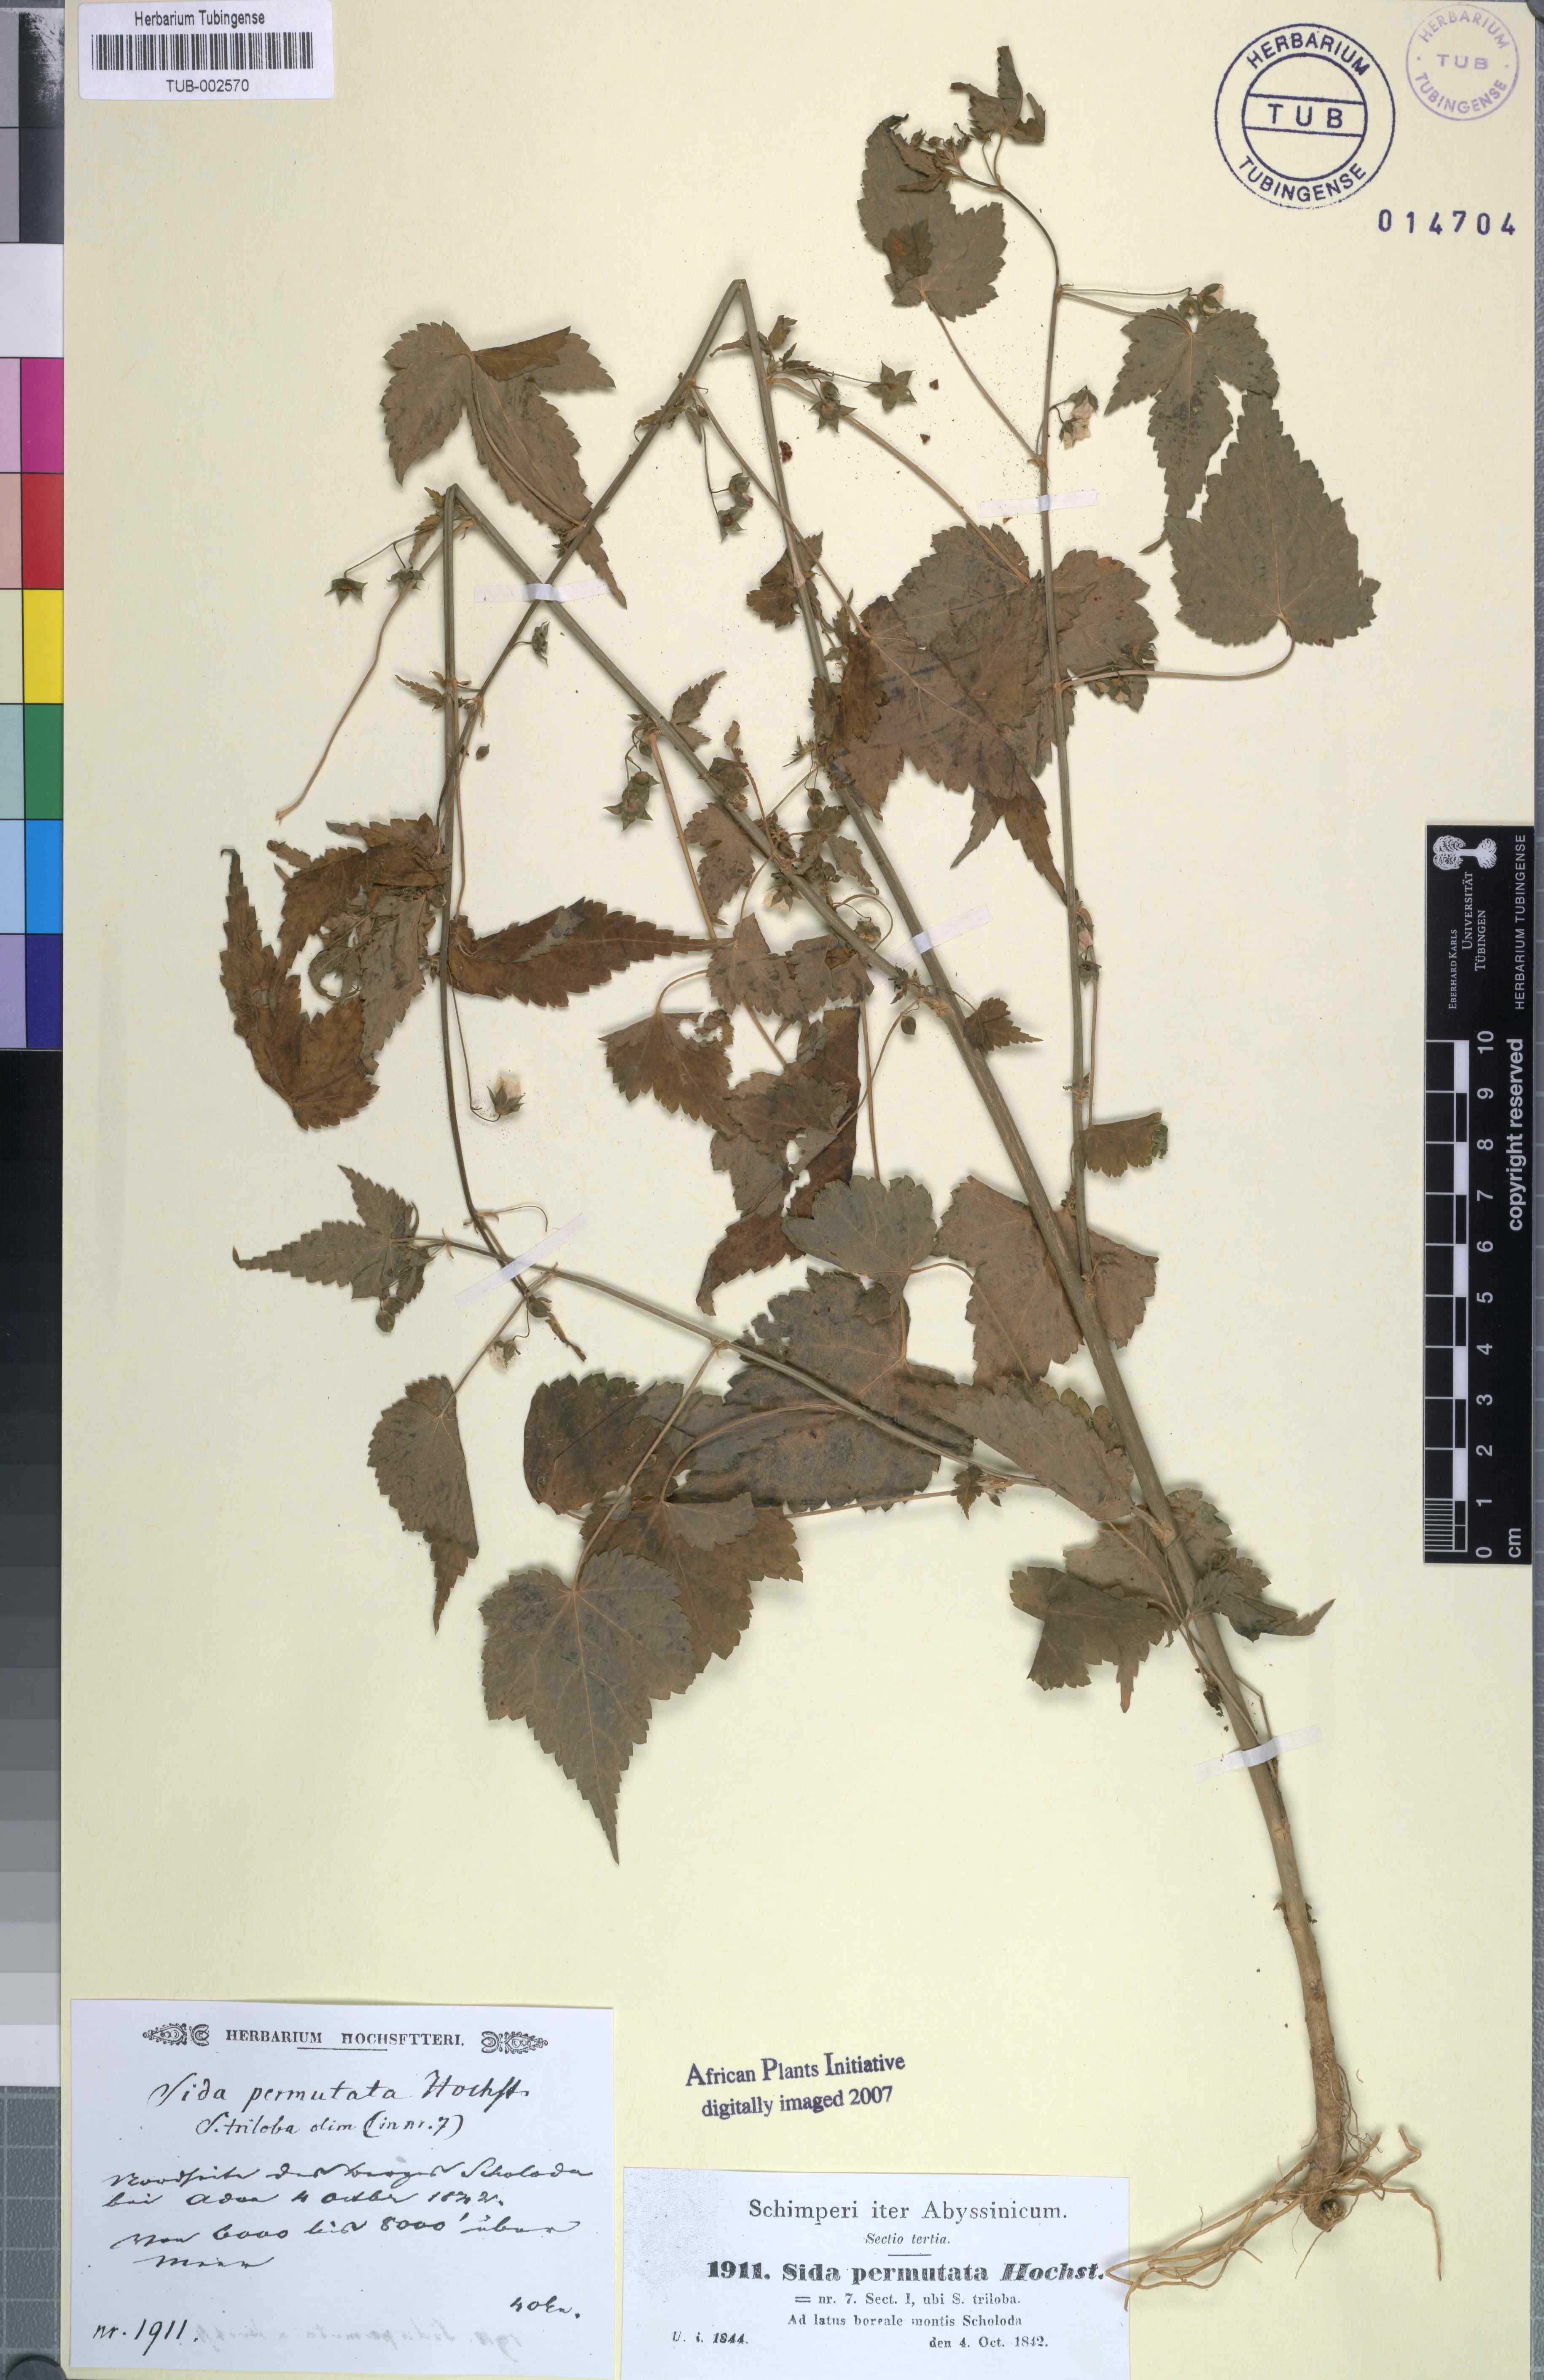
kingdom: Plantae
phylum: Tracheophyta
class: Magnoliopsida
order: Malvales
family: Malvaceae
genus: Sida
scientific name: Sida ternata
